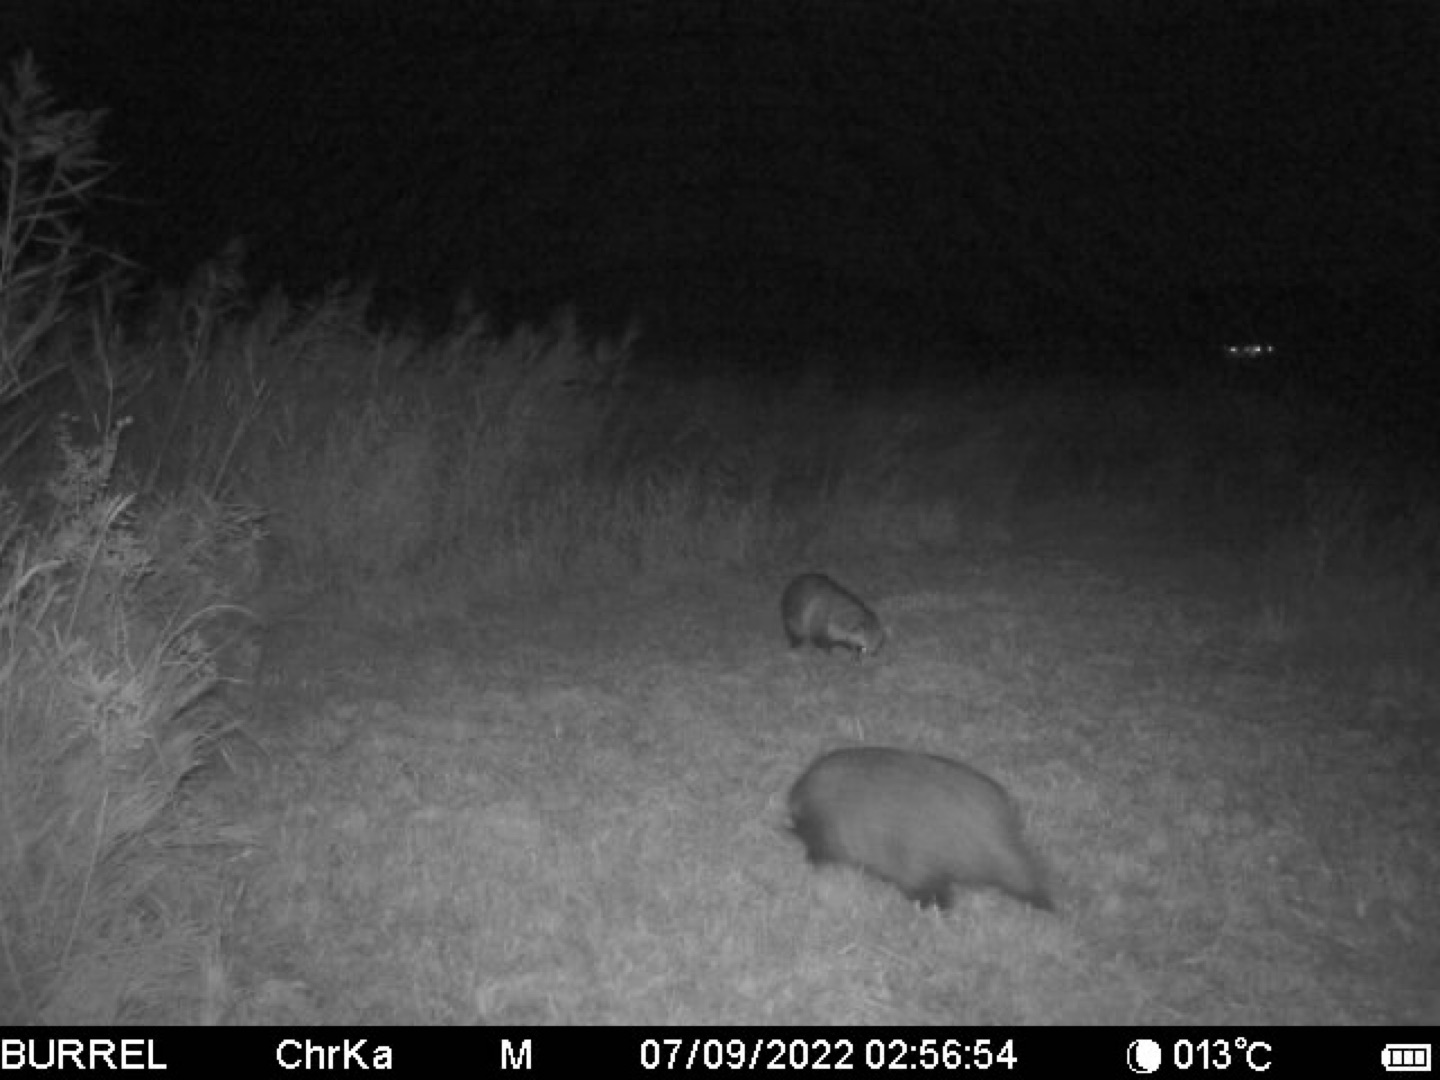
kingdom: Animalia
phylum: Chordata
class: Mammalia
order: Carnivora
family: Canidae
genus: Nyctereutes
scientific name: Nyctereutes procyonoides
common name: Mårhund
